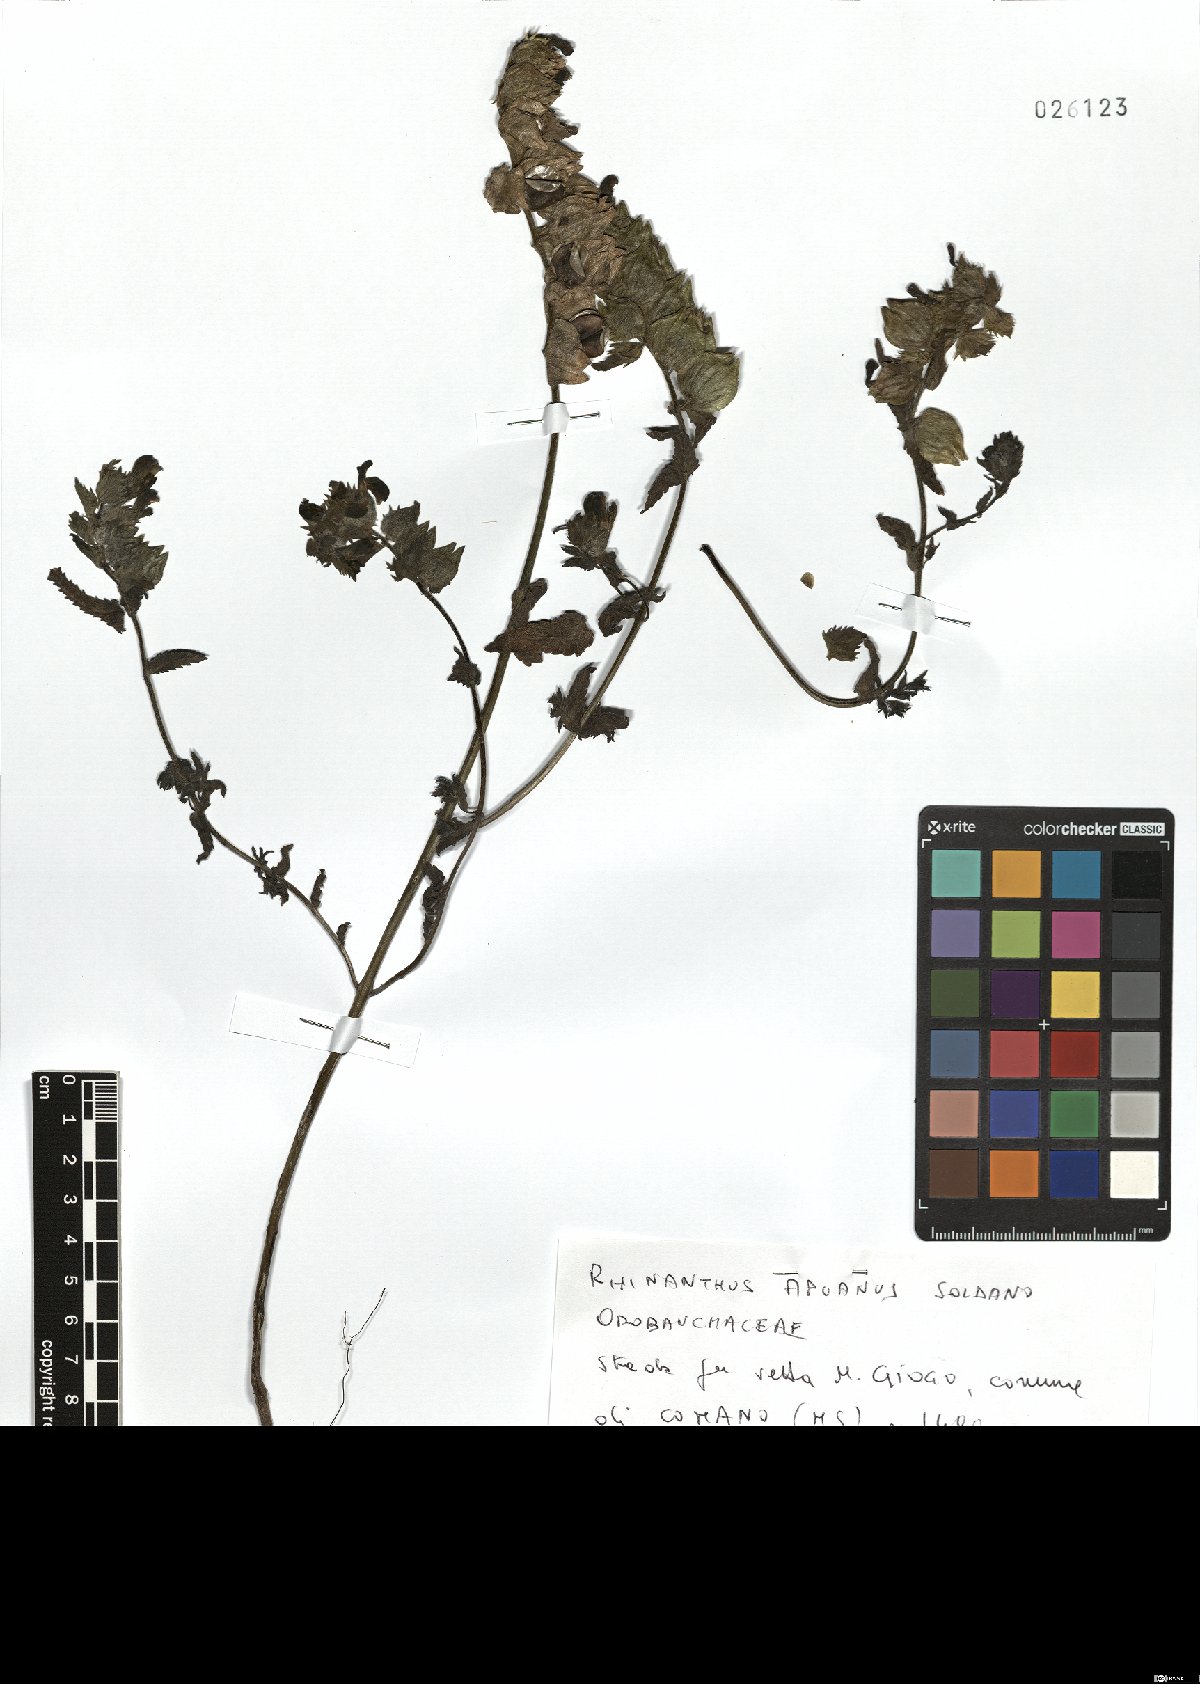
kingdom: Plantae
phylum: Tracheophyta
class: Magnoliopsida
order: Lamiales
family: Orobanchaceae
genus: Rhinanthus
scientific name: Rhinanthus pumilus
